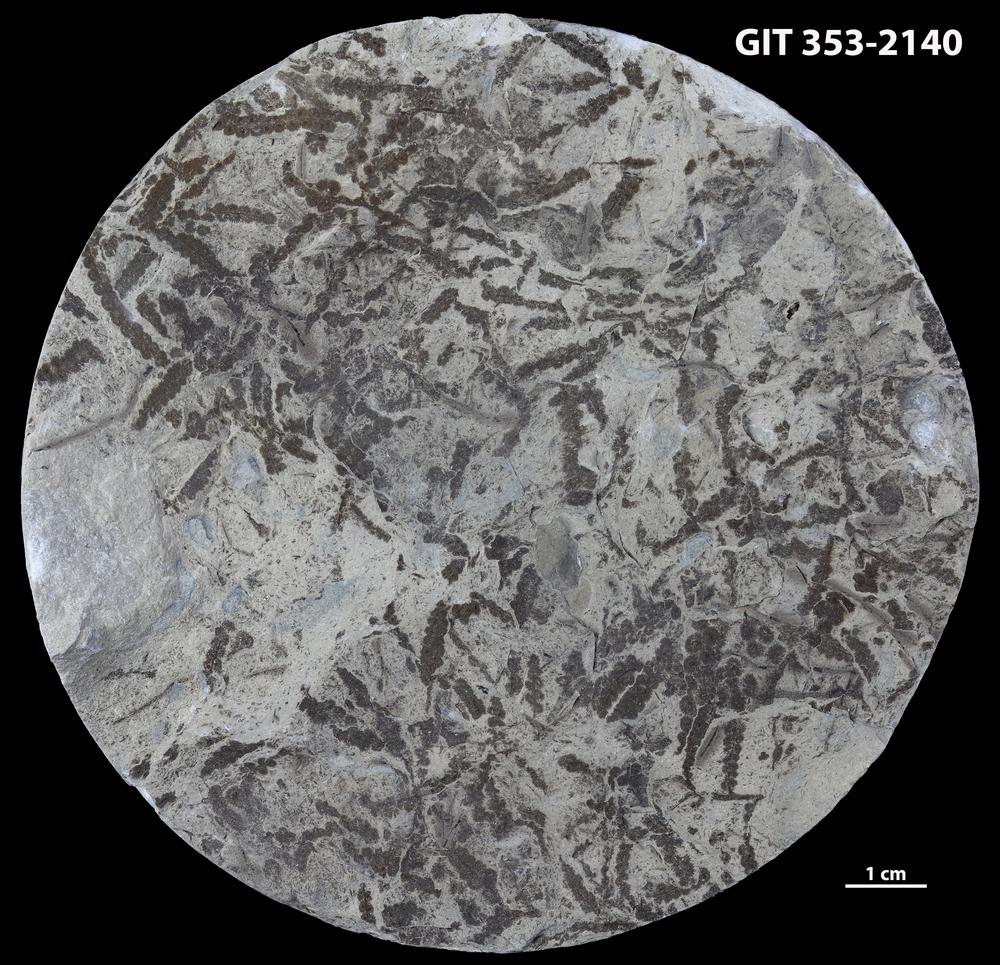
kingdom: Plantae
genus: Leveilleites
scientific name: Leveilleites hartnageli
